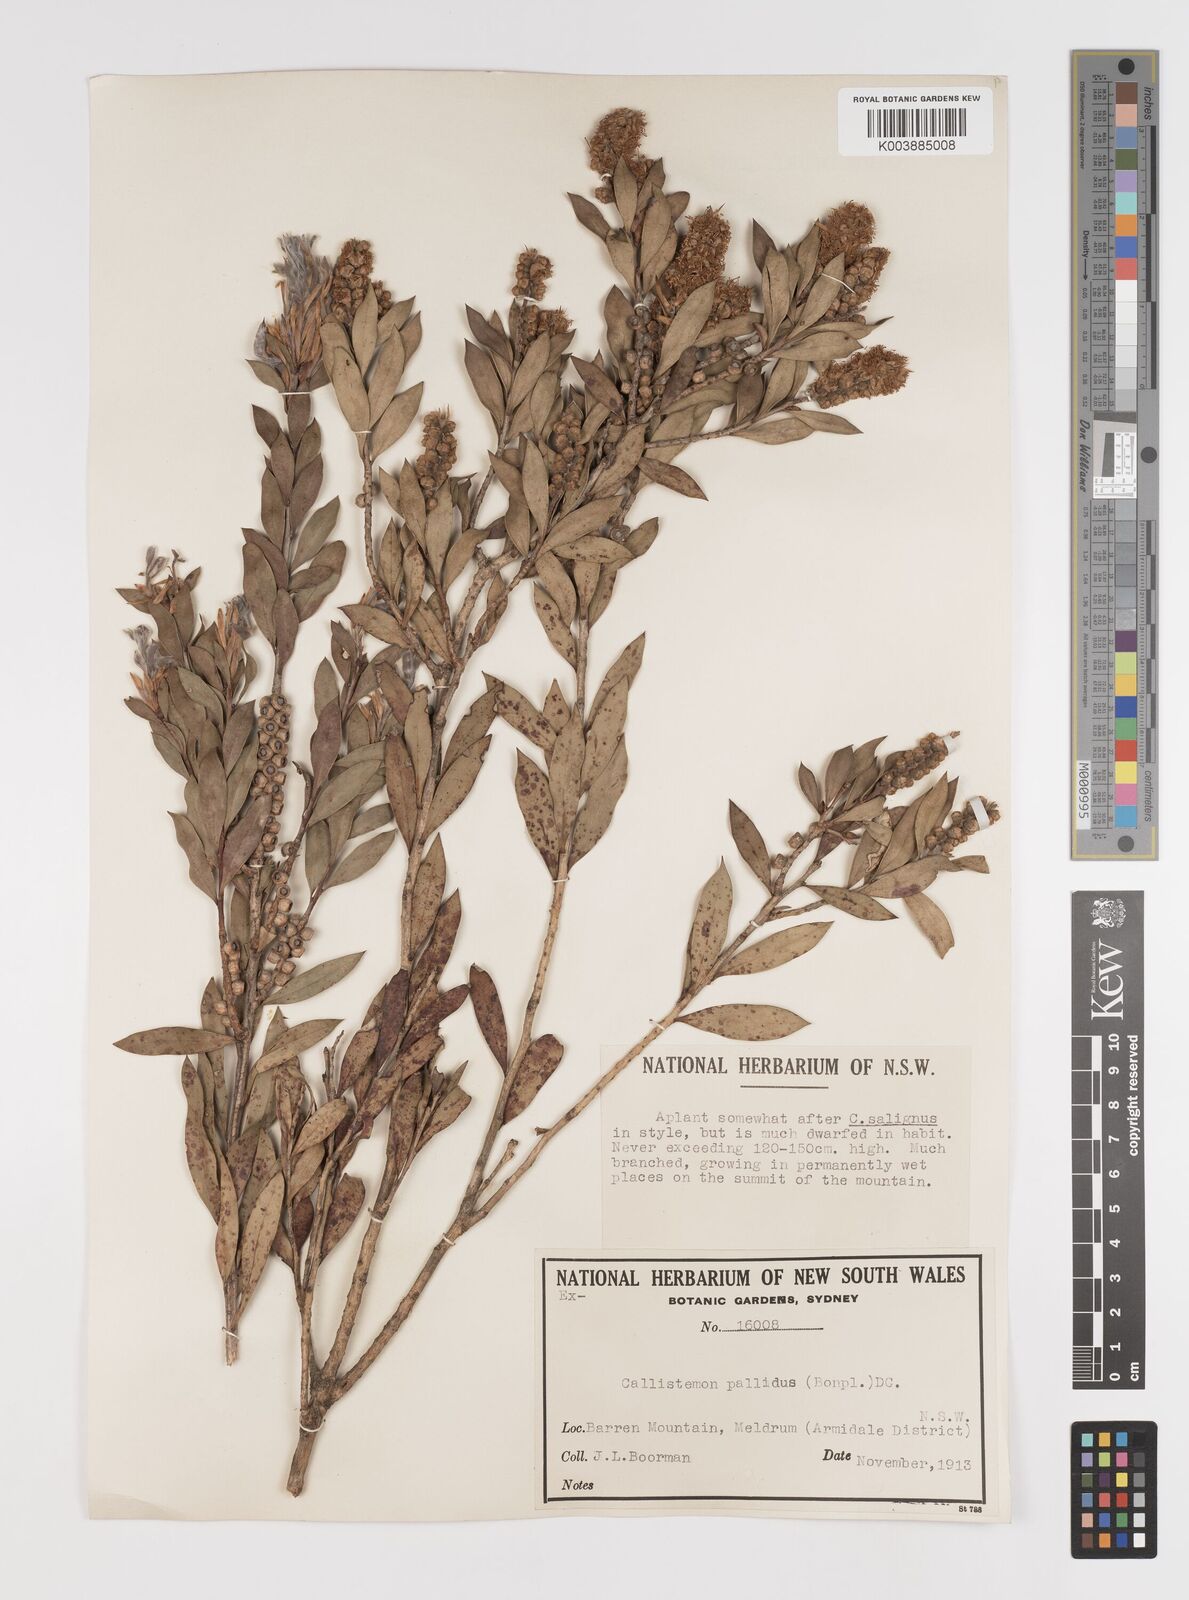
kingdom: Plantae
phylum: Tracheophyta
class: Magnoliopsida
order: Myrtales
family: Myrtaceae
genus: Melaleuca
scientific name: Melaleuca pallida
